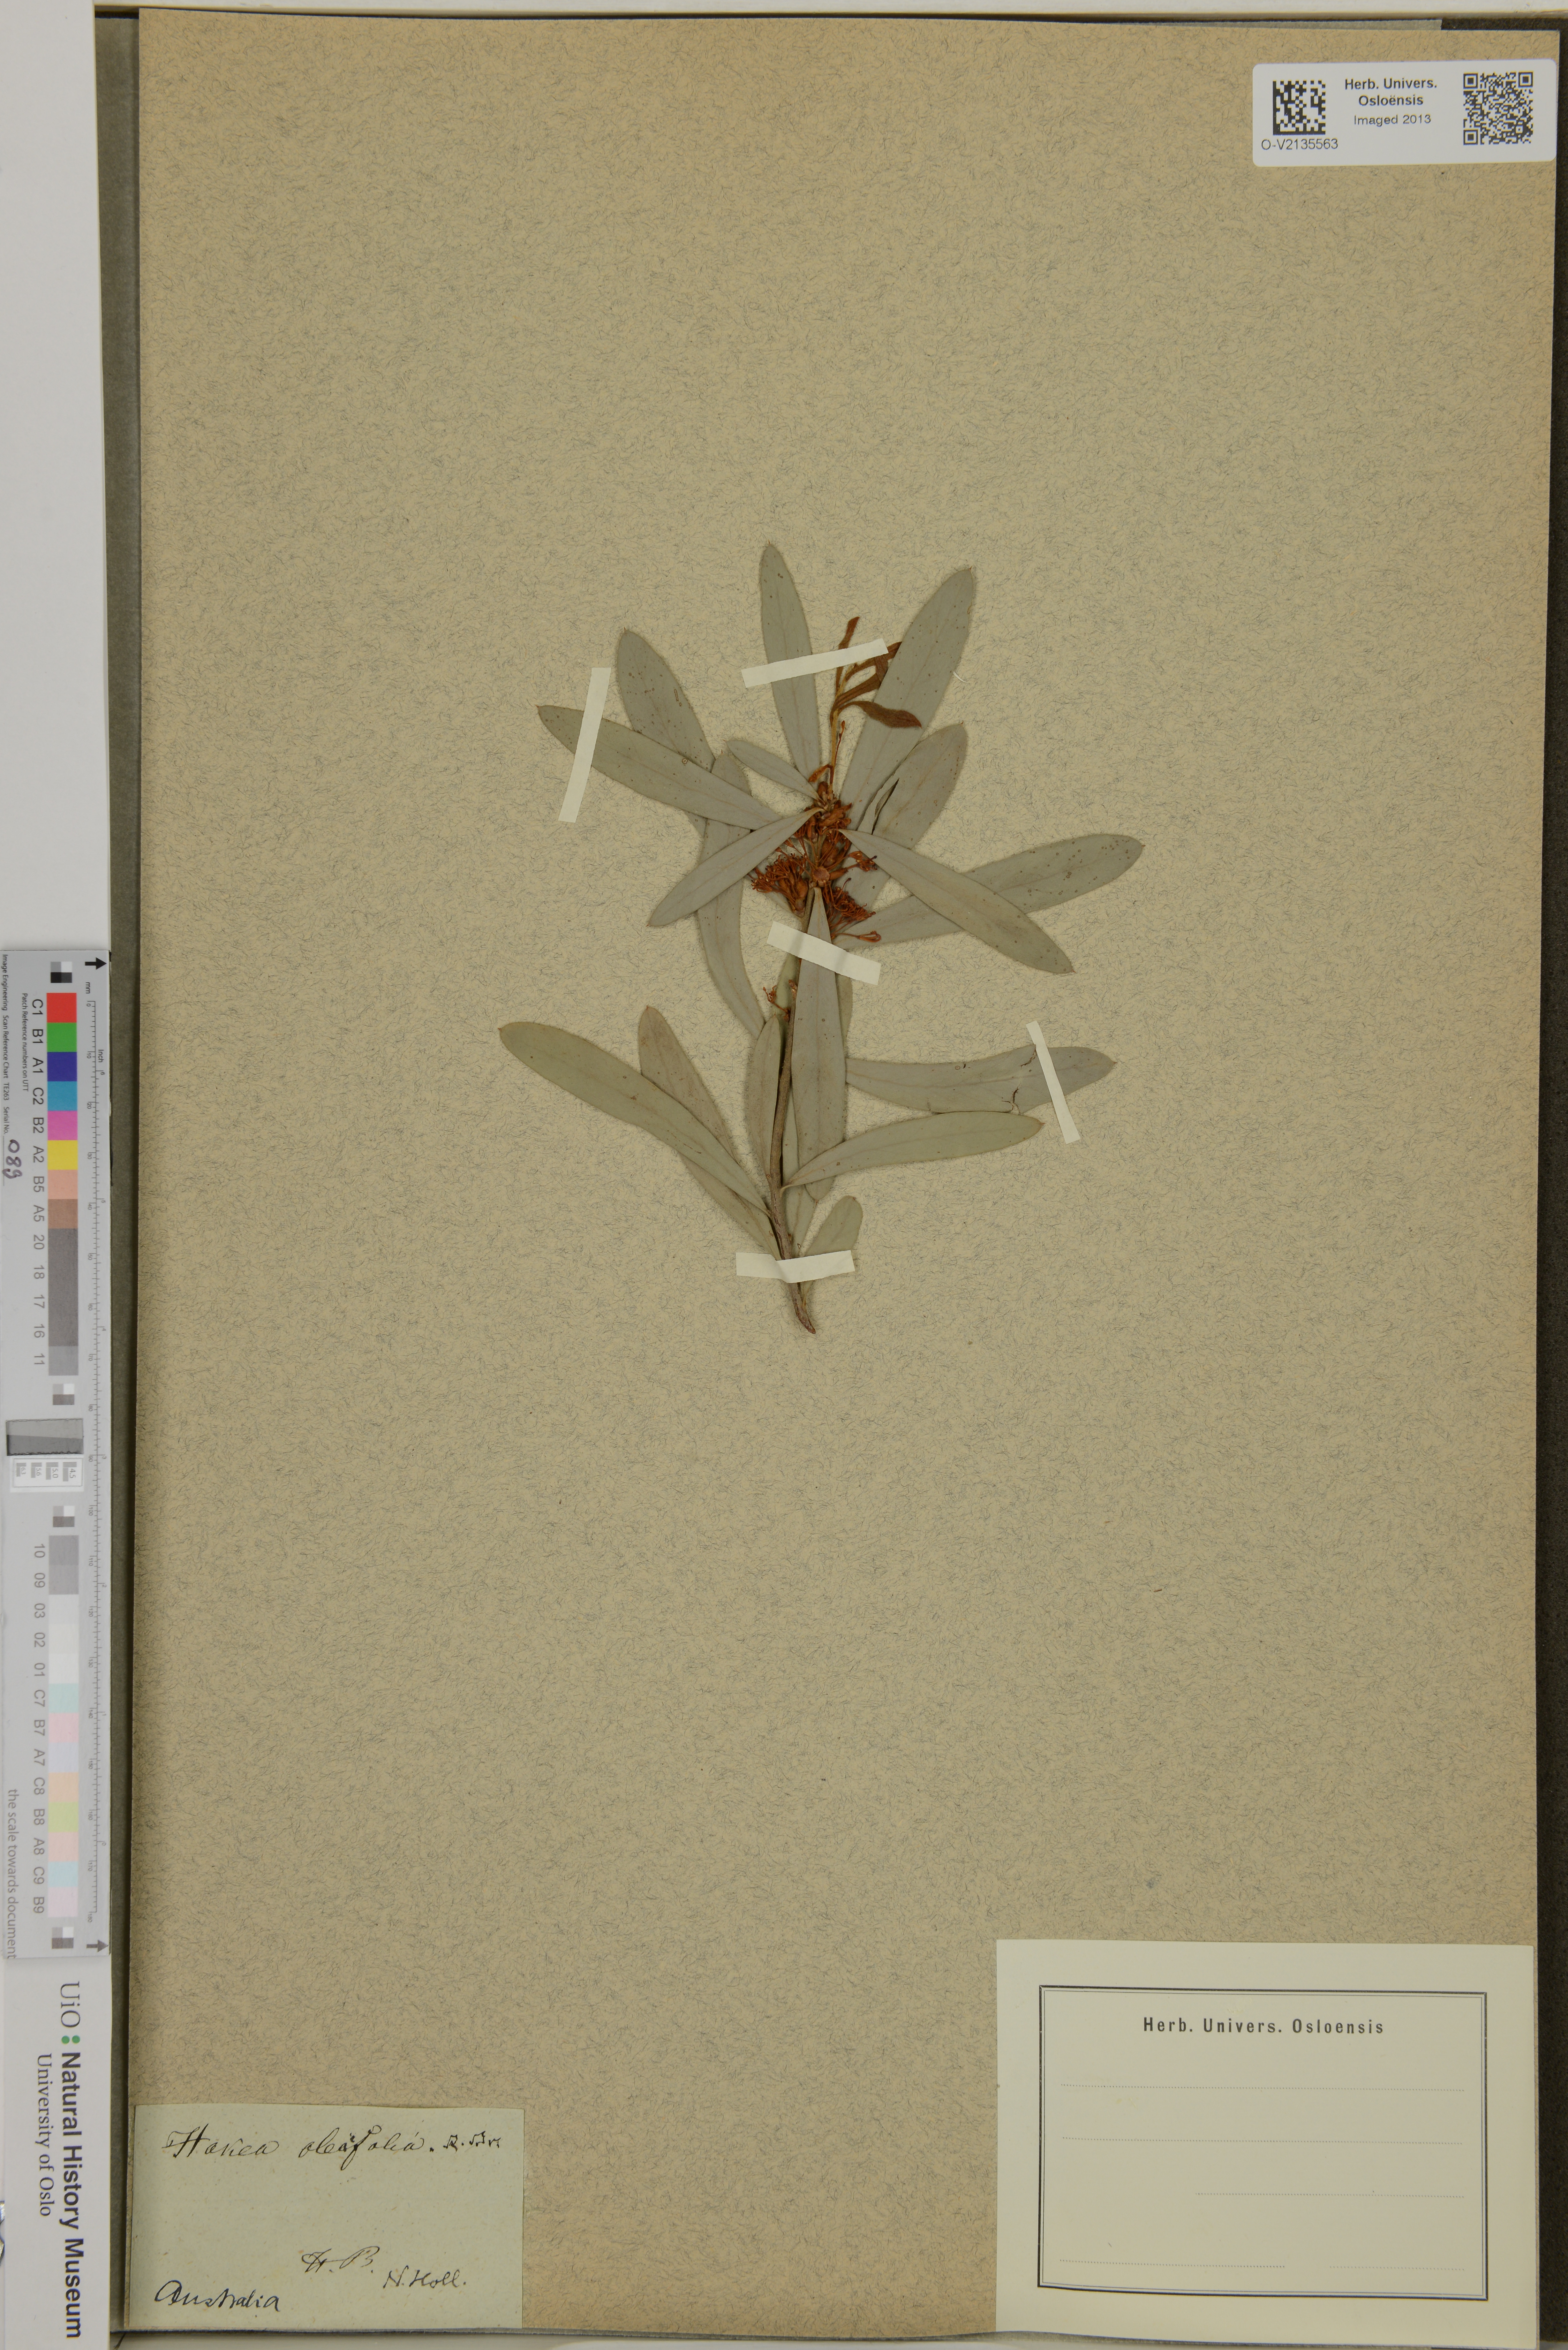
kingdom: Plantae
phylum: Tracheophyta
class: Magnoliopsida
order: Proteales
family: Proteaceae
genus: Hakea
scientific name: Hakea oleifolia
